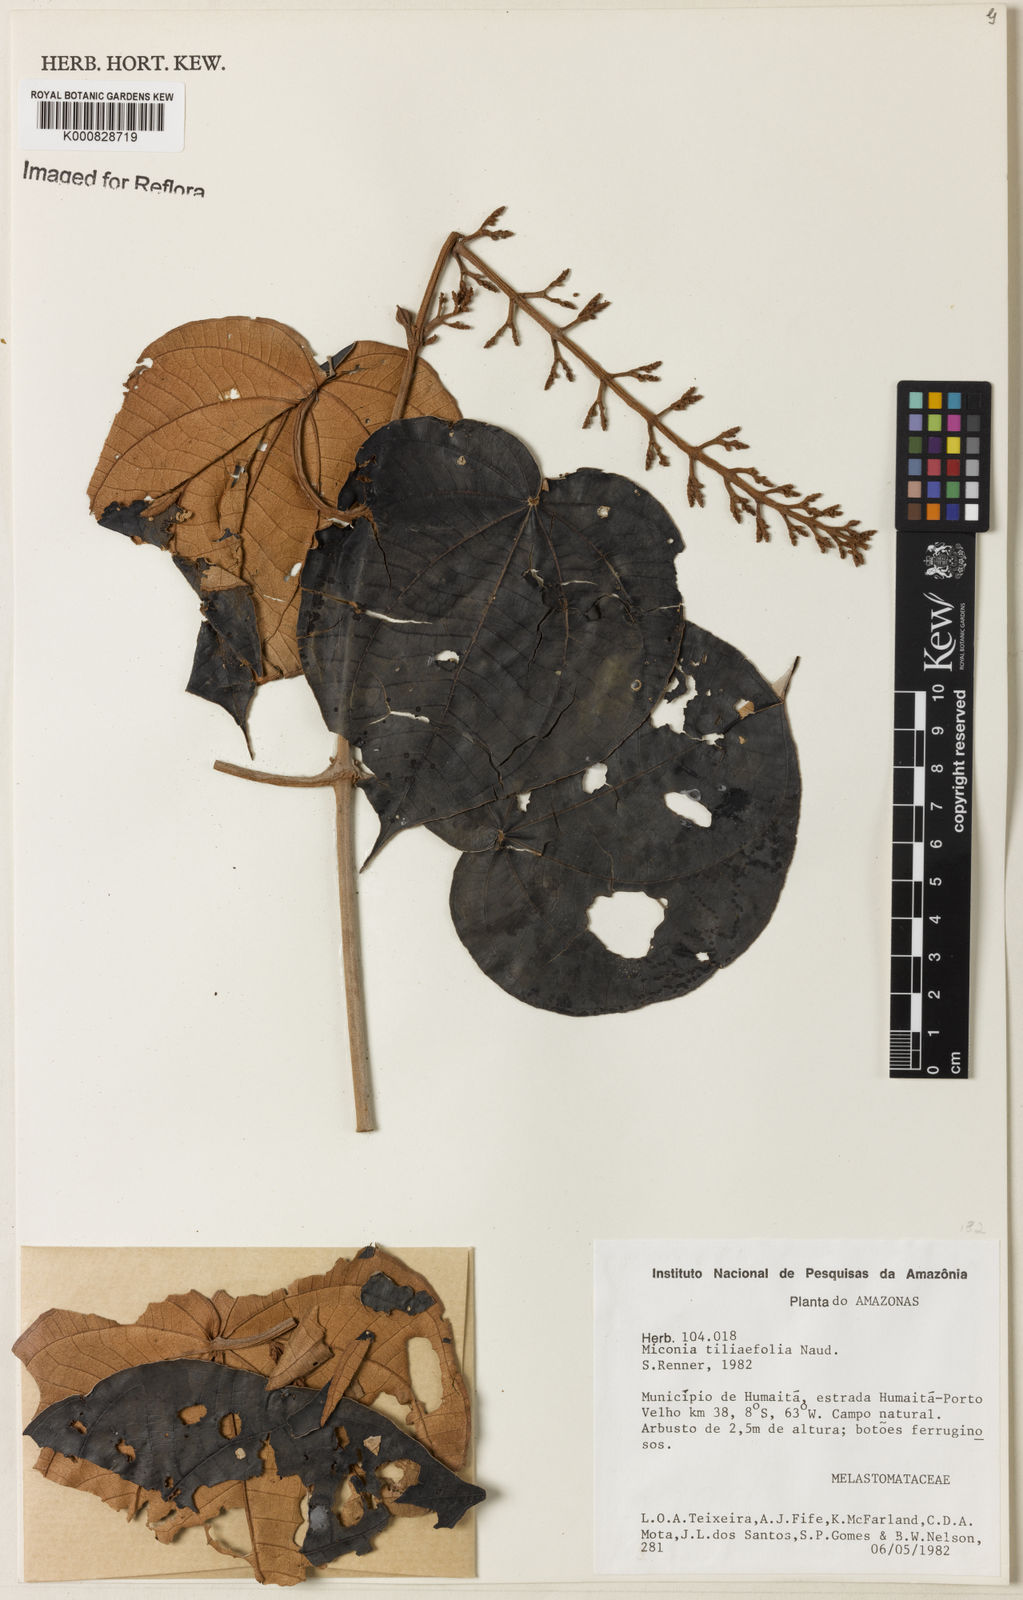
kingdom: Plantae
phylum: Tracheophyta
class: Magnoliopsida
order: Myrtales
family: Melastomataceae
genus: Miconia
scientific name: Miconia
